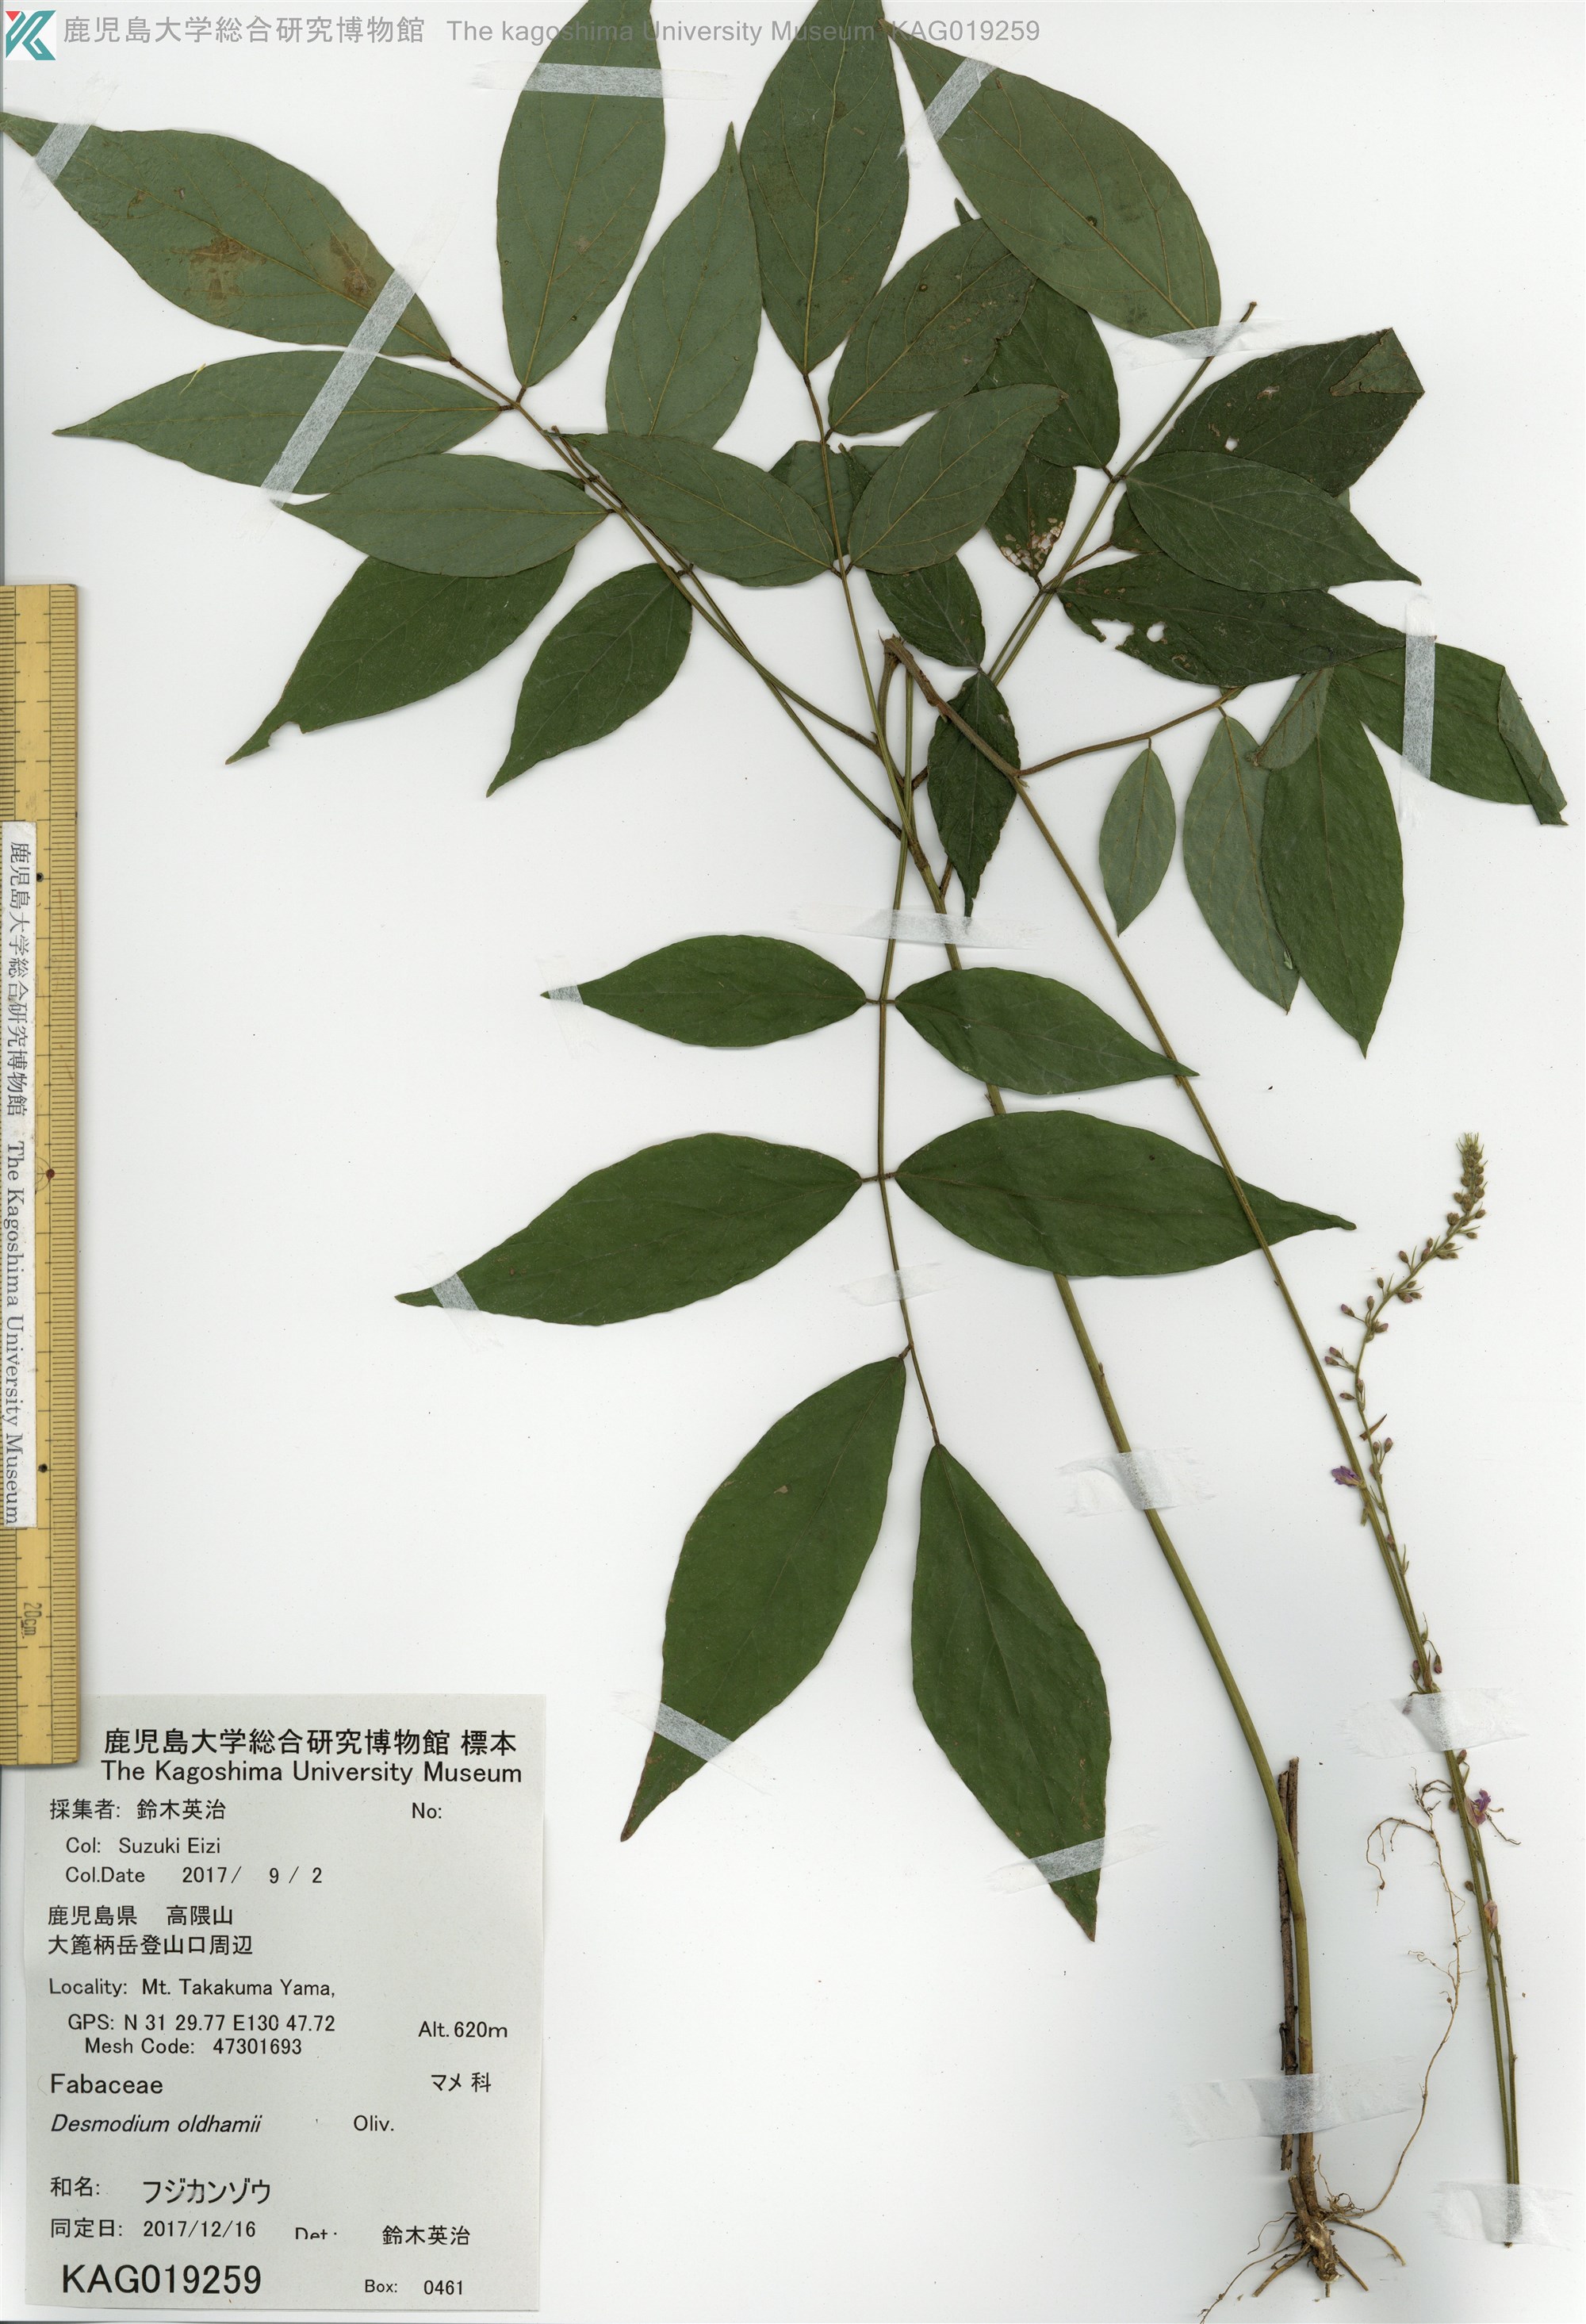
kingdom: Plantae
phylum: Tracheophyta
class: Magnoliopsida
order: Fabales
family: Fabaceae
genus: Hylodesmum
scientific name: Hylodesmum oldhamii
